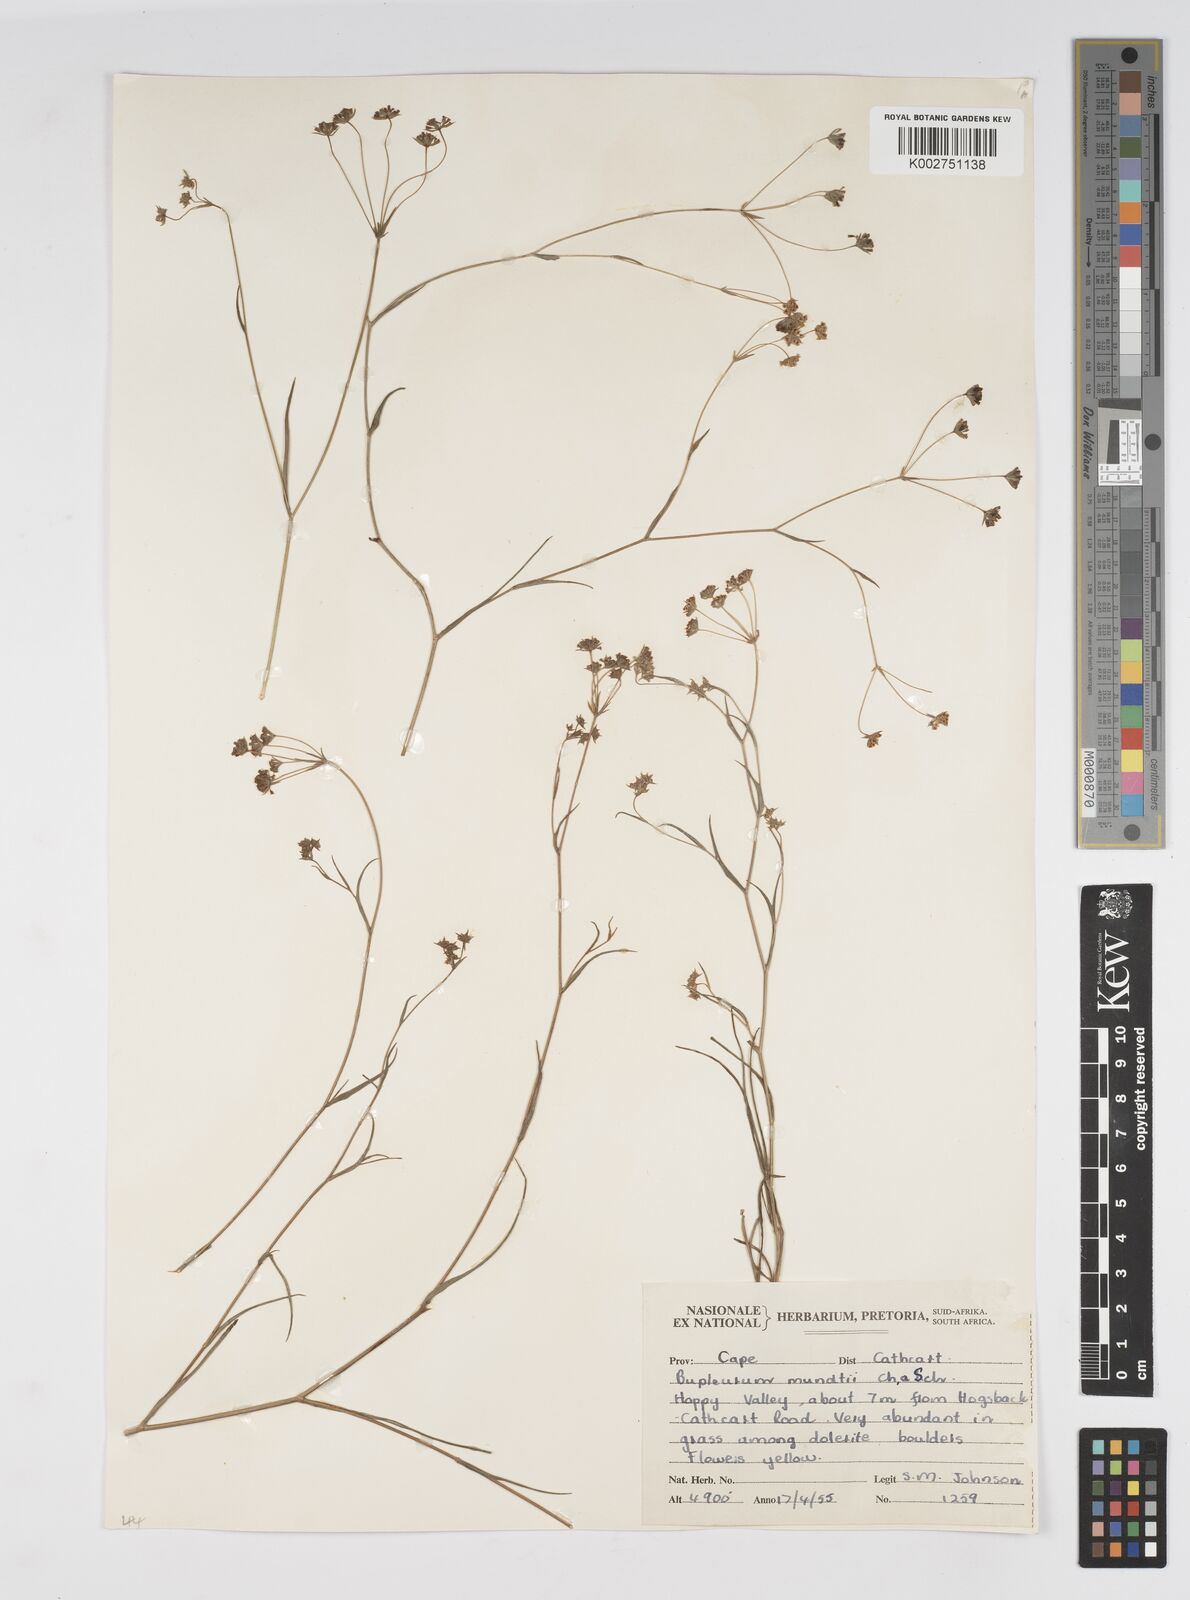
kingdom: Plantae
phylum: Tracheophyta
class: Magnoliopsida
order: Apiales
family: Apiaceae
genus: Bupleurum
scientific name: Bupleurum mundii
